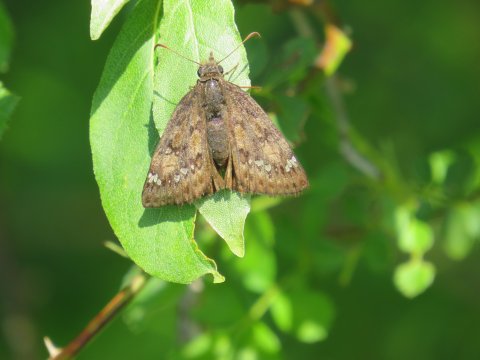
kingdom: Animalia
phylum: Arthropoda
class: Insecta
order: Lepidoptera
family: Hesperiidae
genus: Gesta
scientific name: Gesta
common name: Horace's Duskywing
